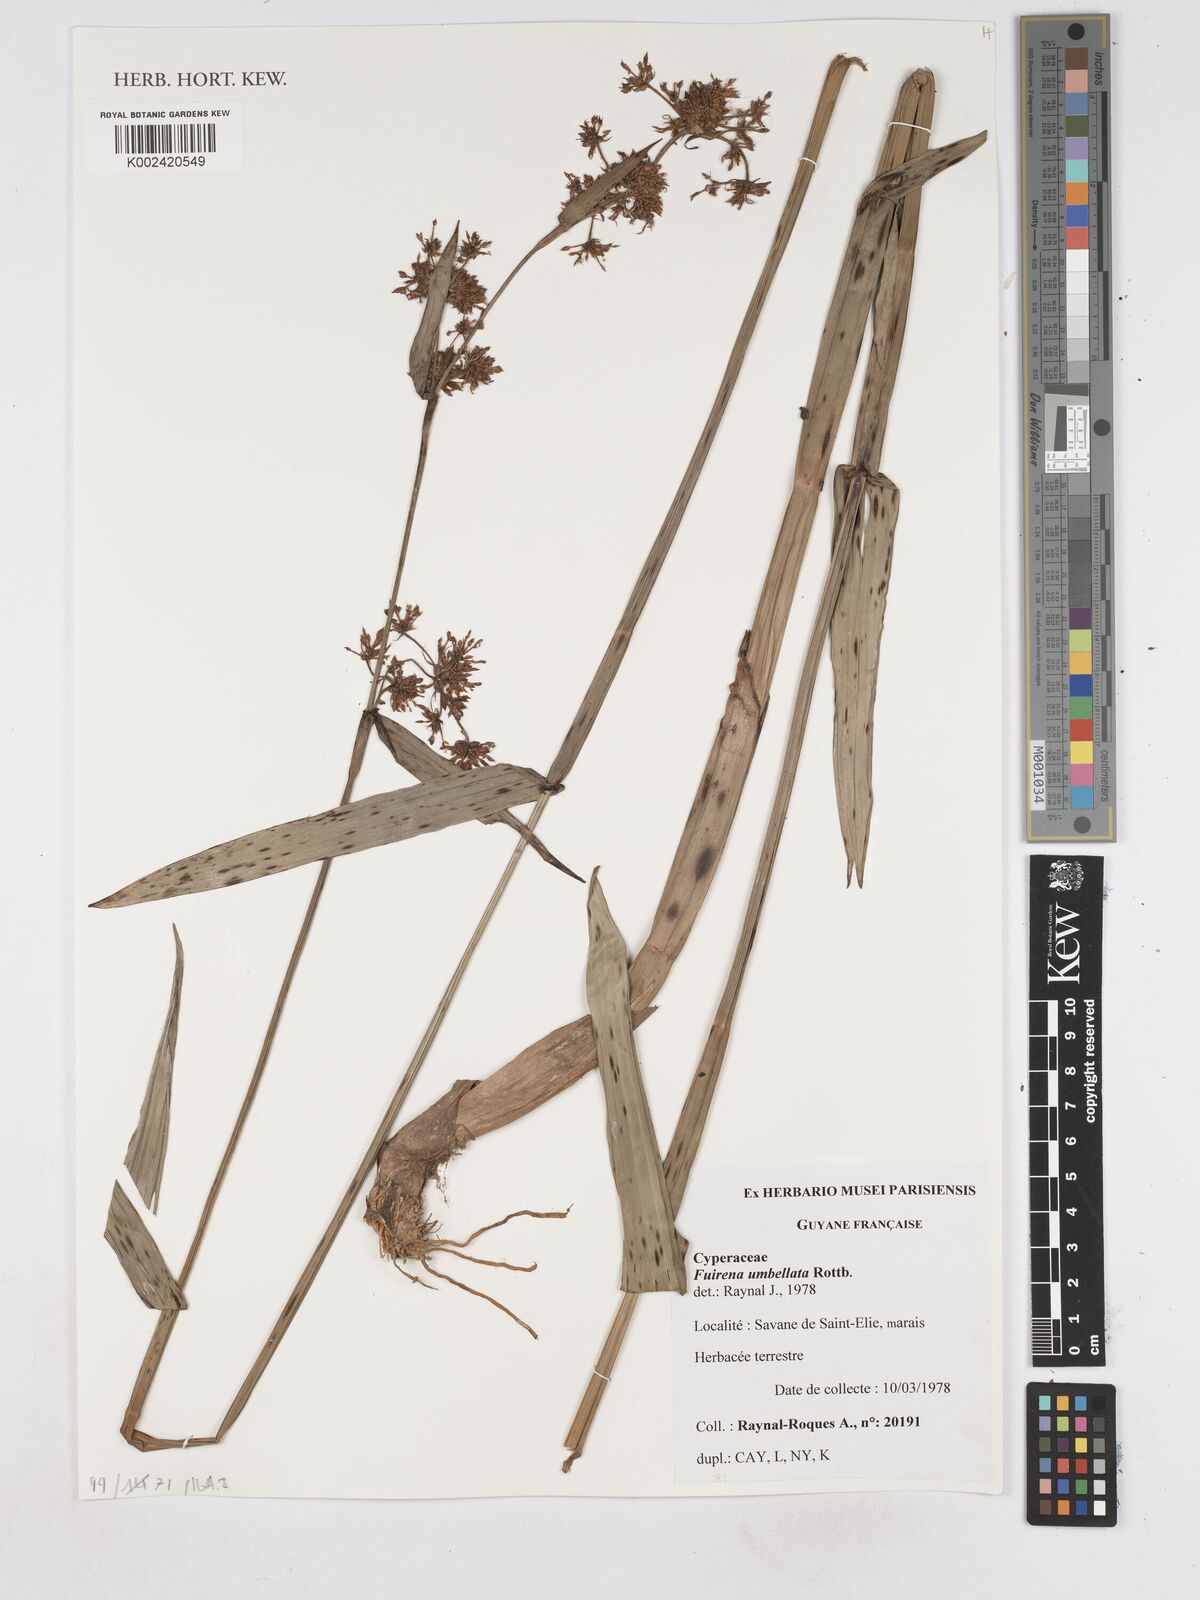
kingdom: Plantae
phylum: Tracheophyta
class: Liliopsida
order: Poales
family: Cyperaceae
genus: Fuirena
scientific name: Fuirena umbellata
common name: Yefen
